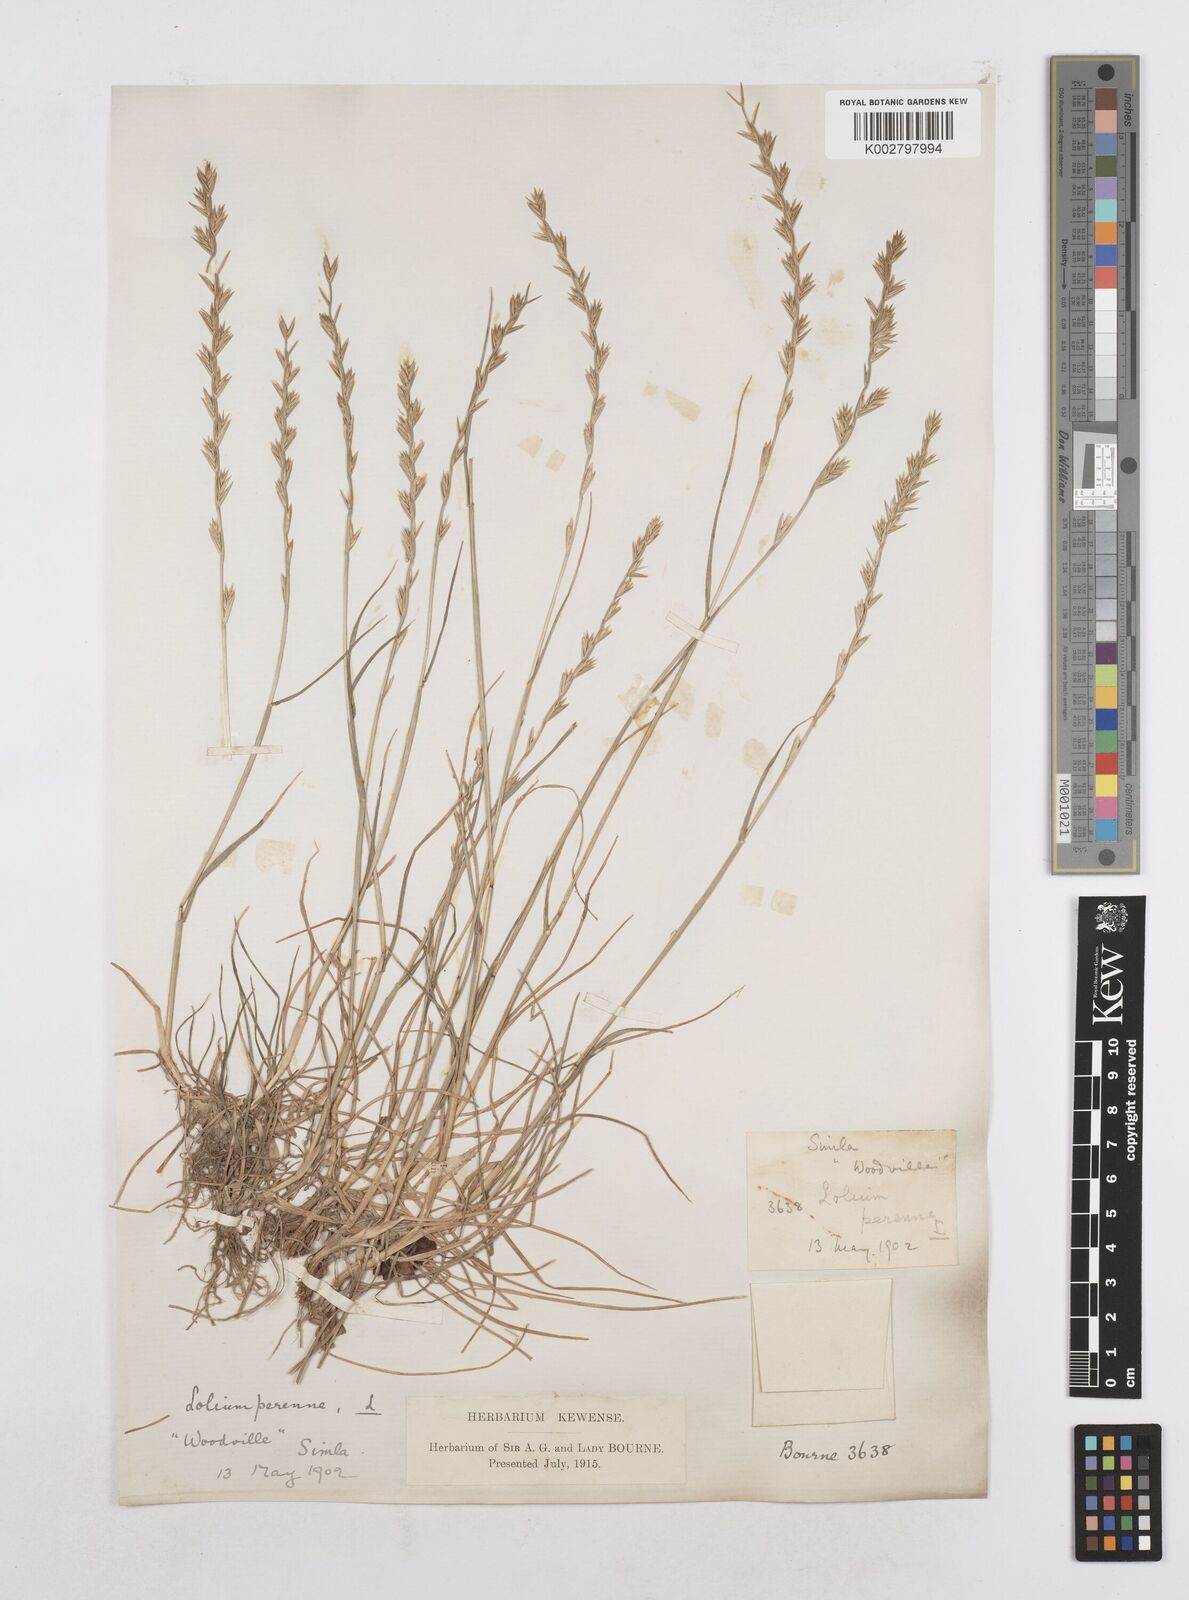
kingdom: Plantae
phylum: Tracheophyta
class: Liliopsida
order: Poales
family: Poaceae
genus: Lolium
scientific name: Lolium perenne
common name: Perennial ryegrass
